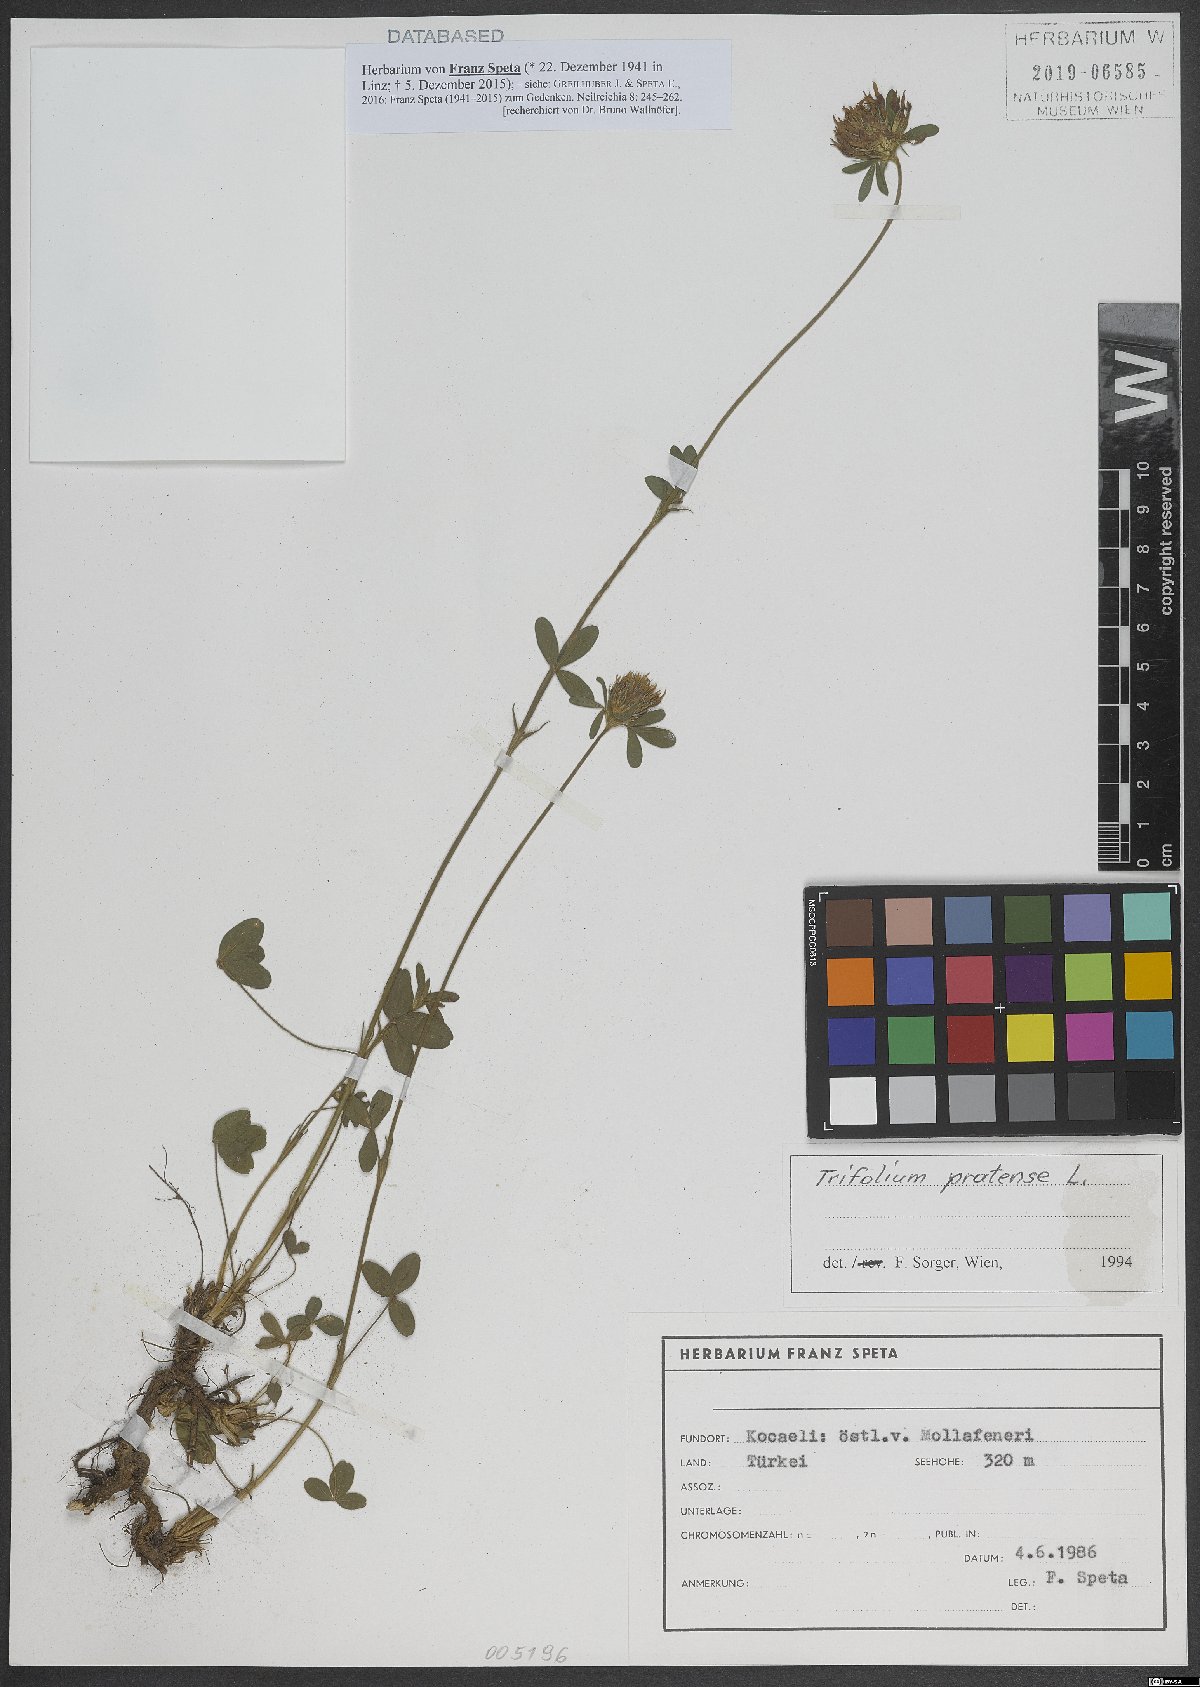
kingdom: Plantae
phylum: Tracheophyta
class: Magnoliopsida
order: Fabales
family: Fabaceae
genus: Trifolium
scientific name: Trifolium pratense
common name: Red clover
